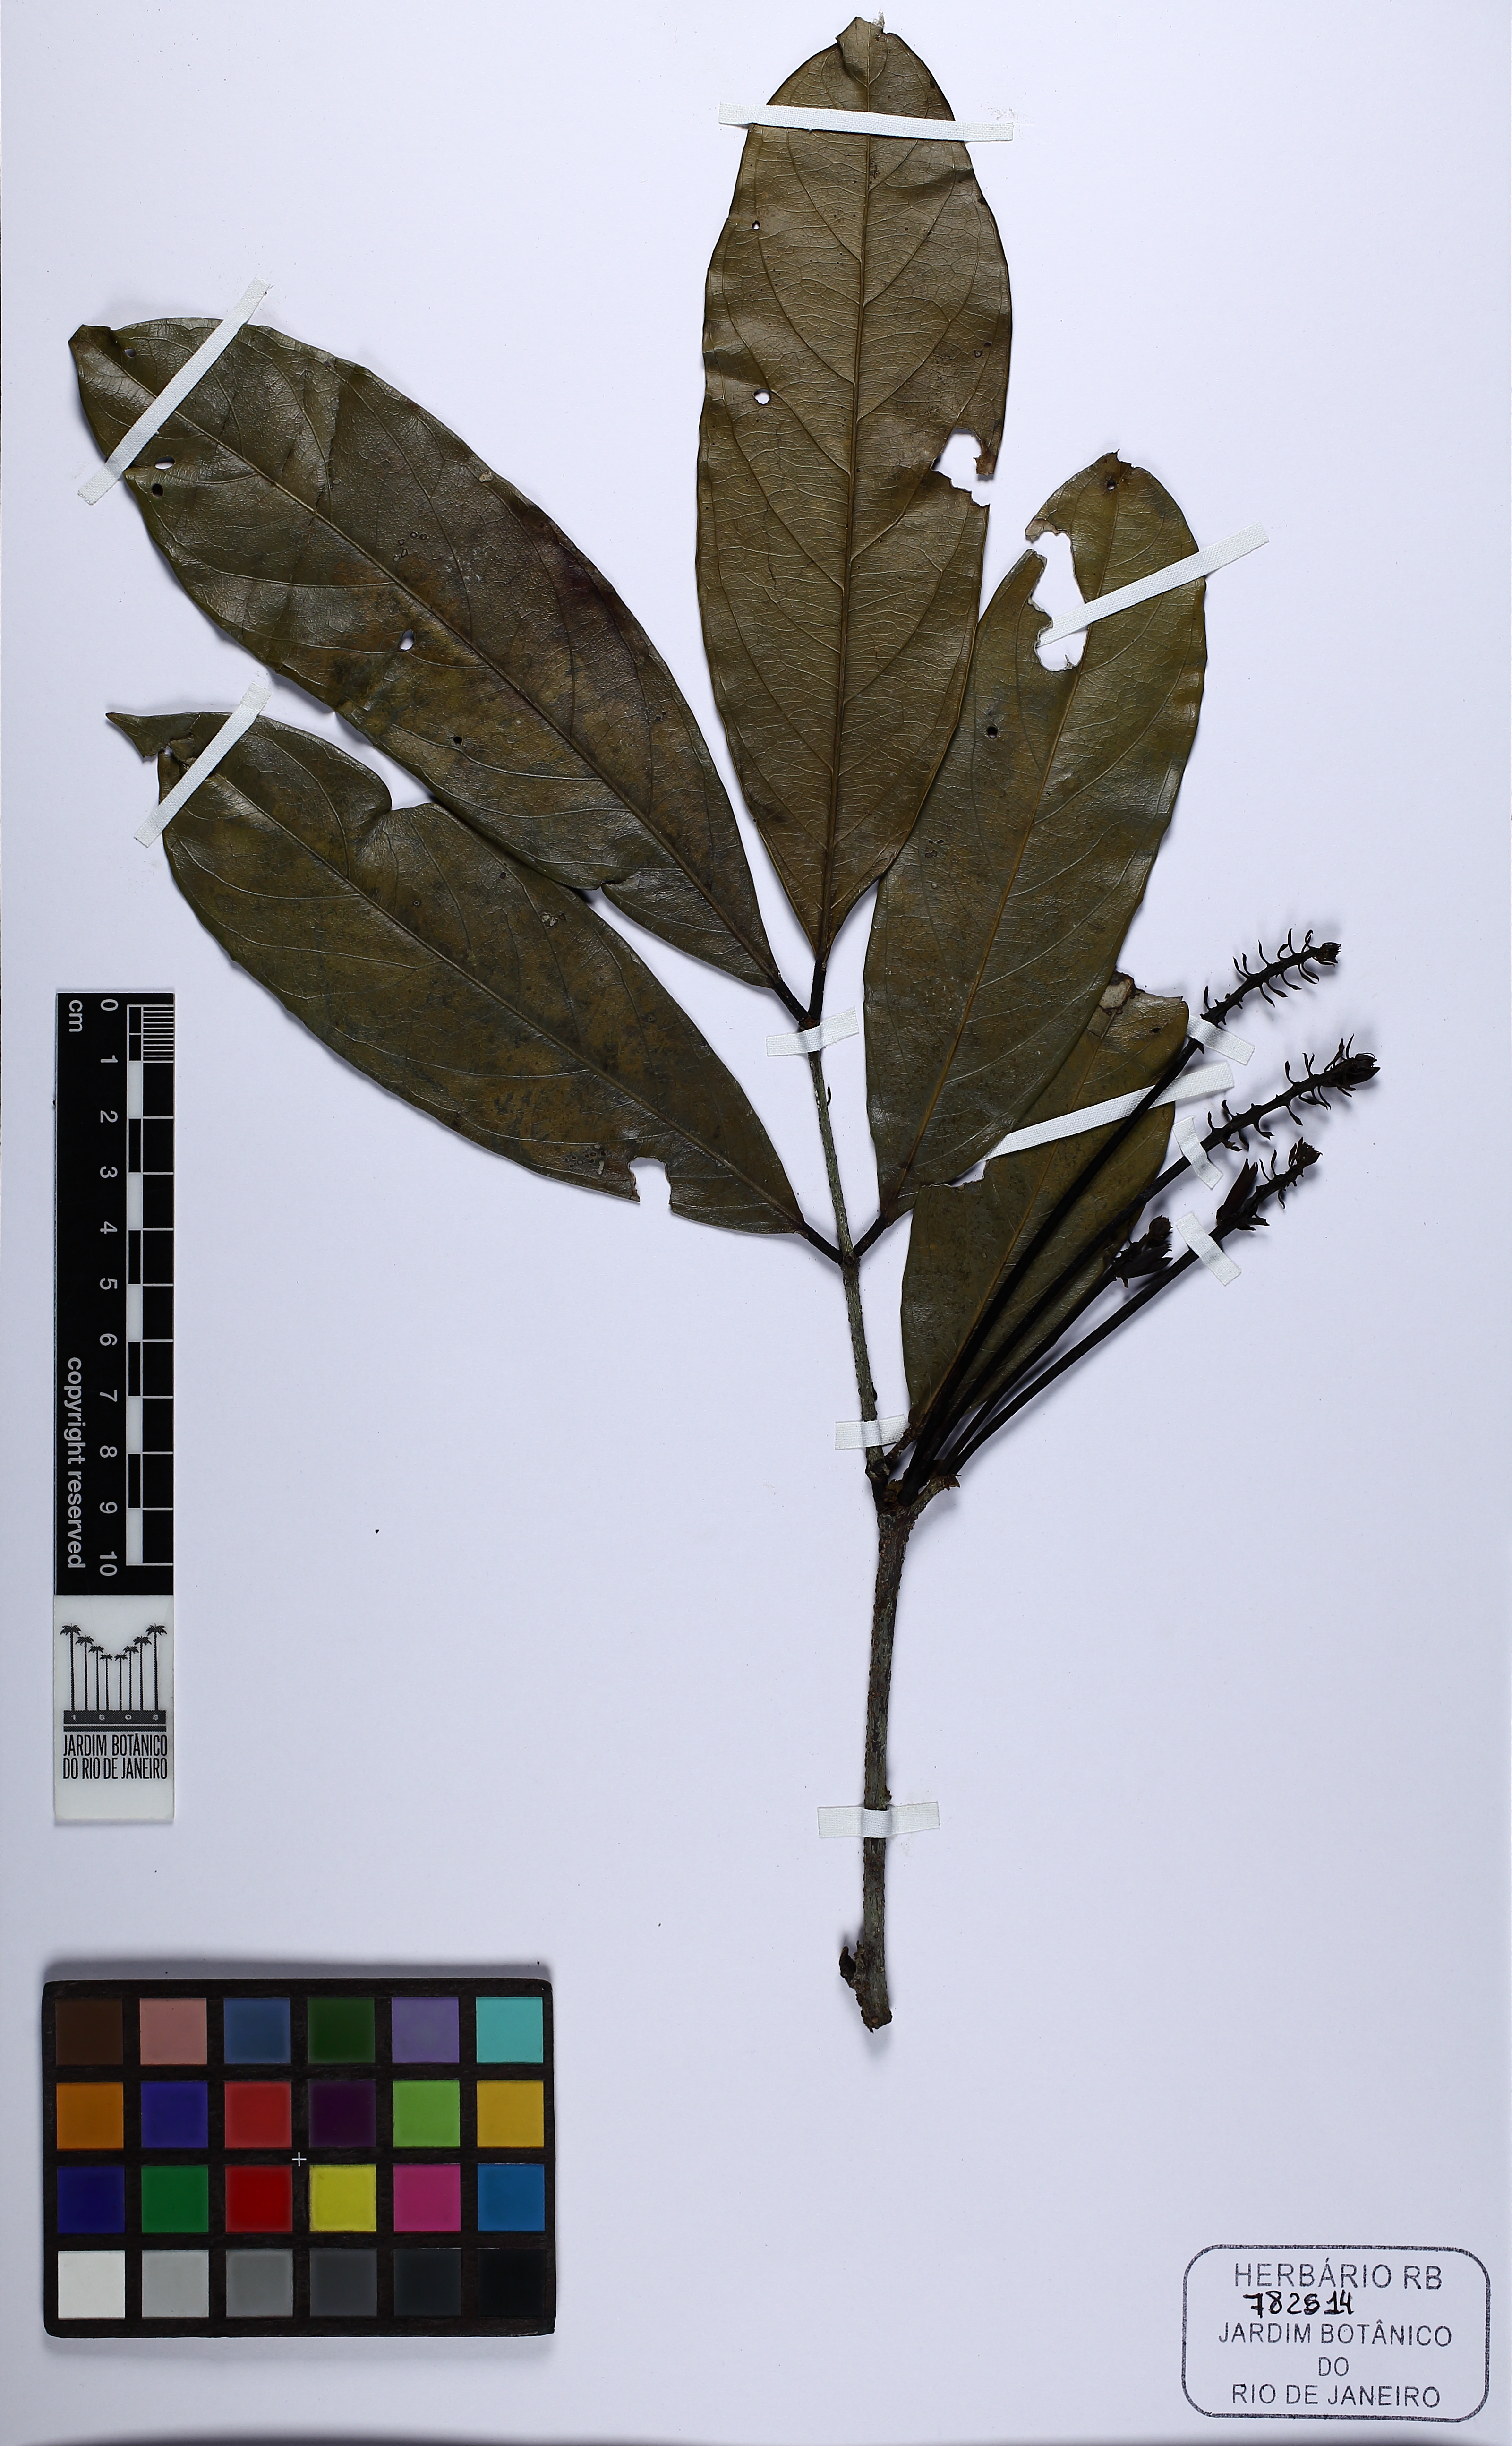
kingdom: Plantae
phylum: Tracheophyta
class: Magnoliopsida
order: Fabales
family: Fabaceae
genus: Inga
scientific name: Inga capitata
